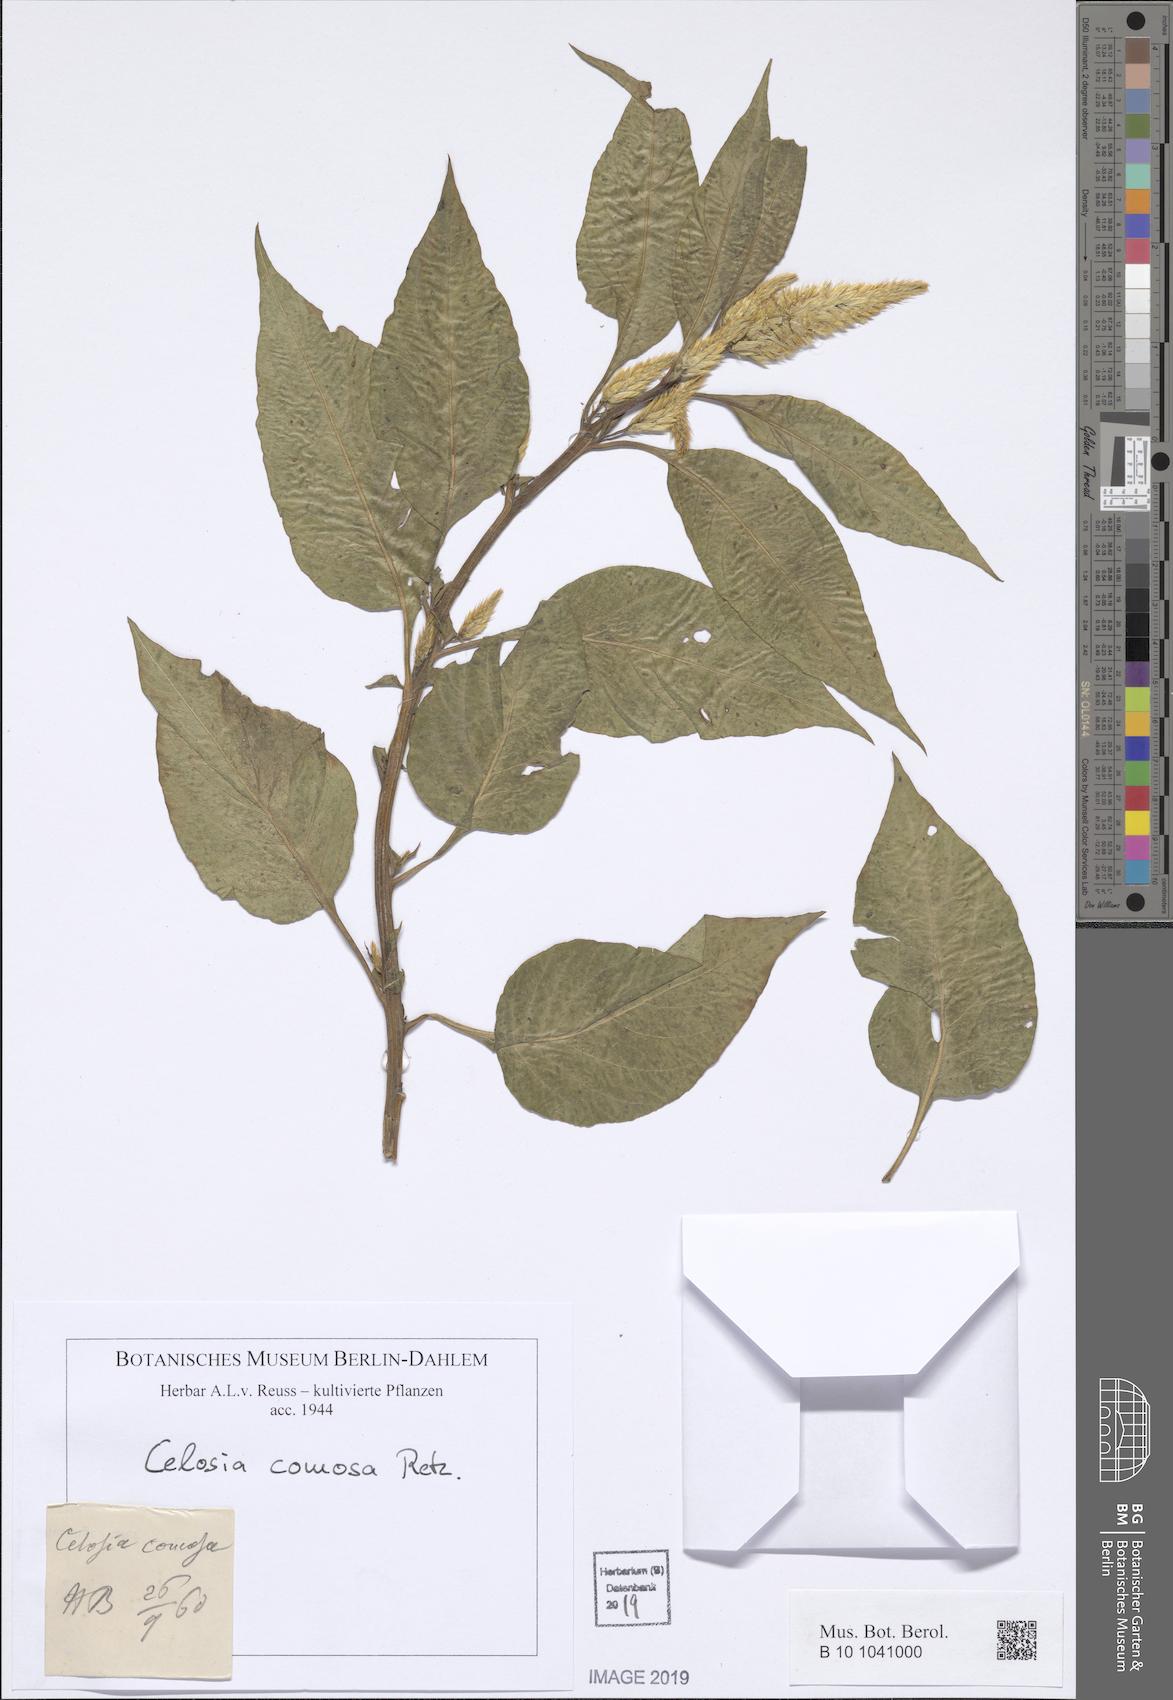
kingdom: Plantae
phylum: Tracheophyta
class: Magnoliopsida
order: Caryophyllales
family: Amaranthaceae
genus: Celosia
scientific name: Celosia argentea
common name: Feather cockscomb
